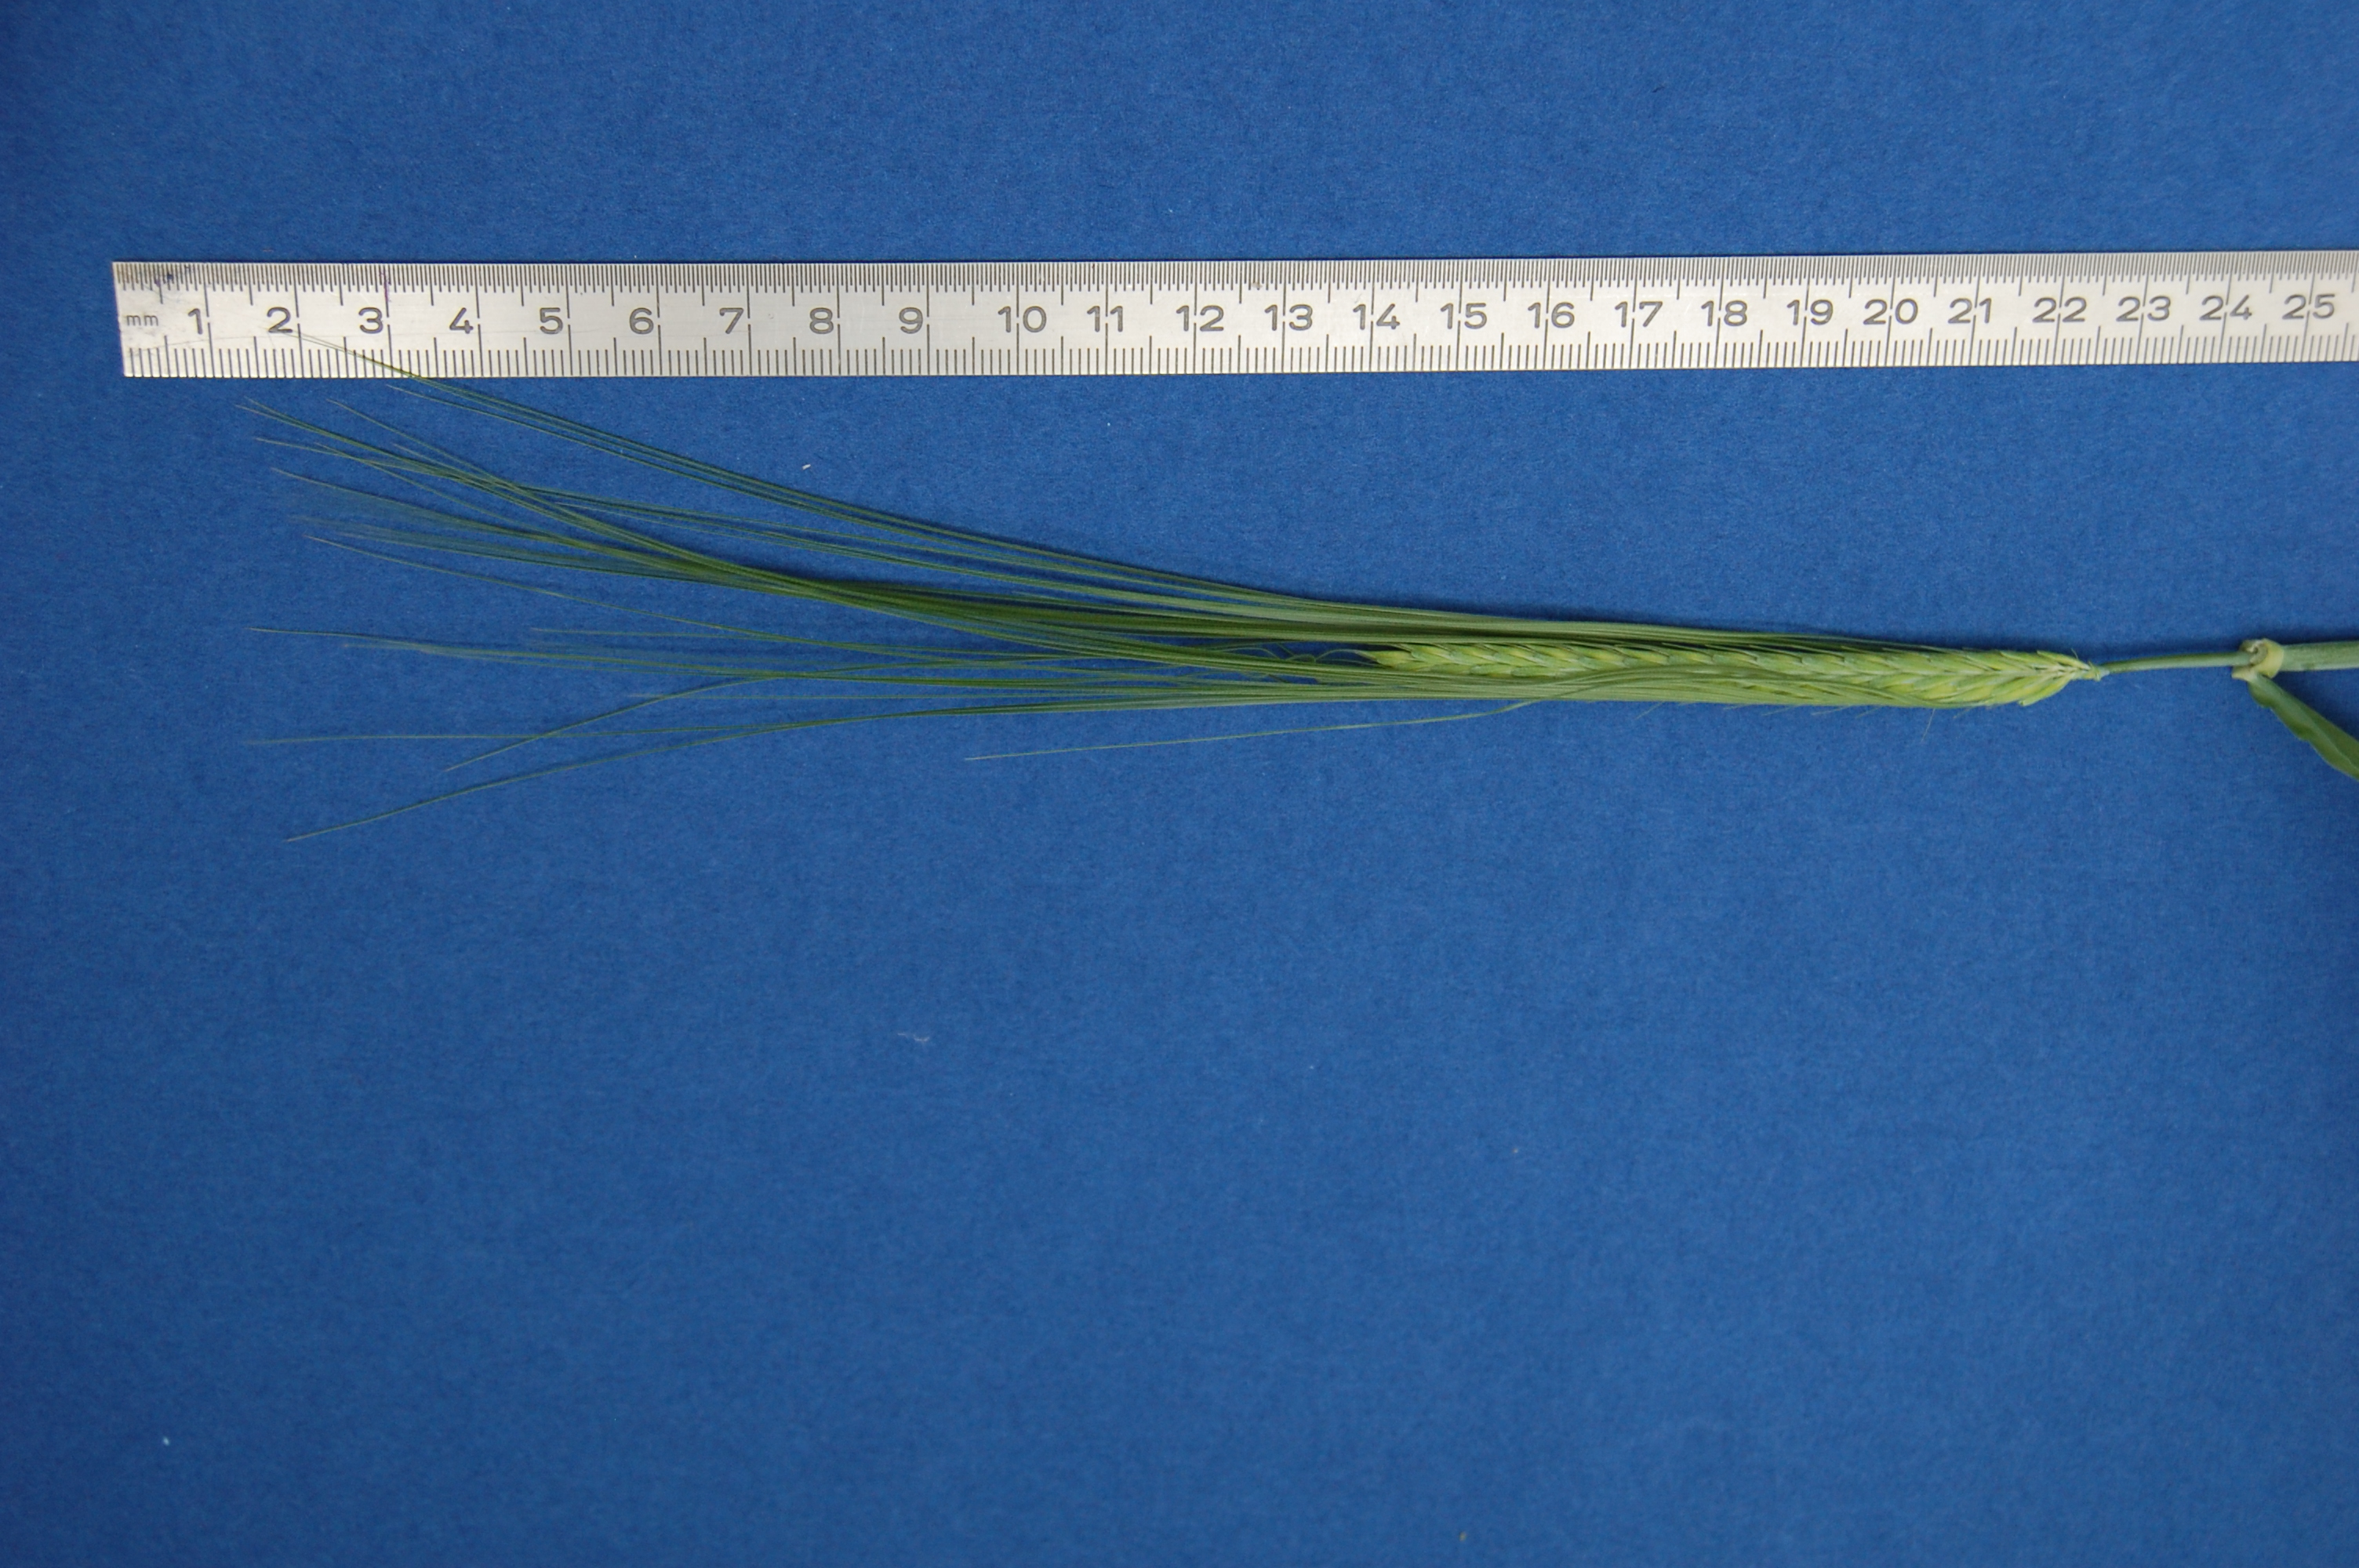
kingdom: Plantae
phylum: Tracheophyta
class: Liliopsida
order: Poales
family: Poaceae
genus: Hordeum
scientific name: Hordeum vulgare
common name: Common barley
